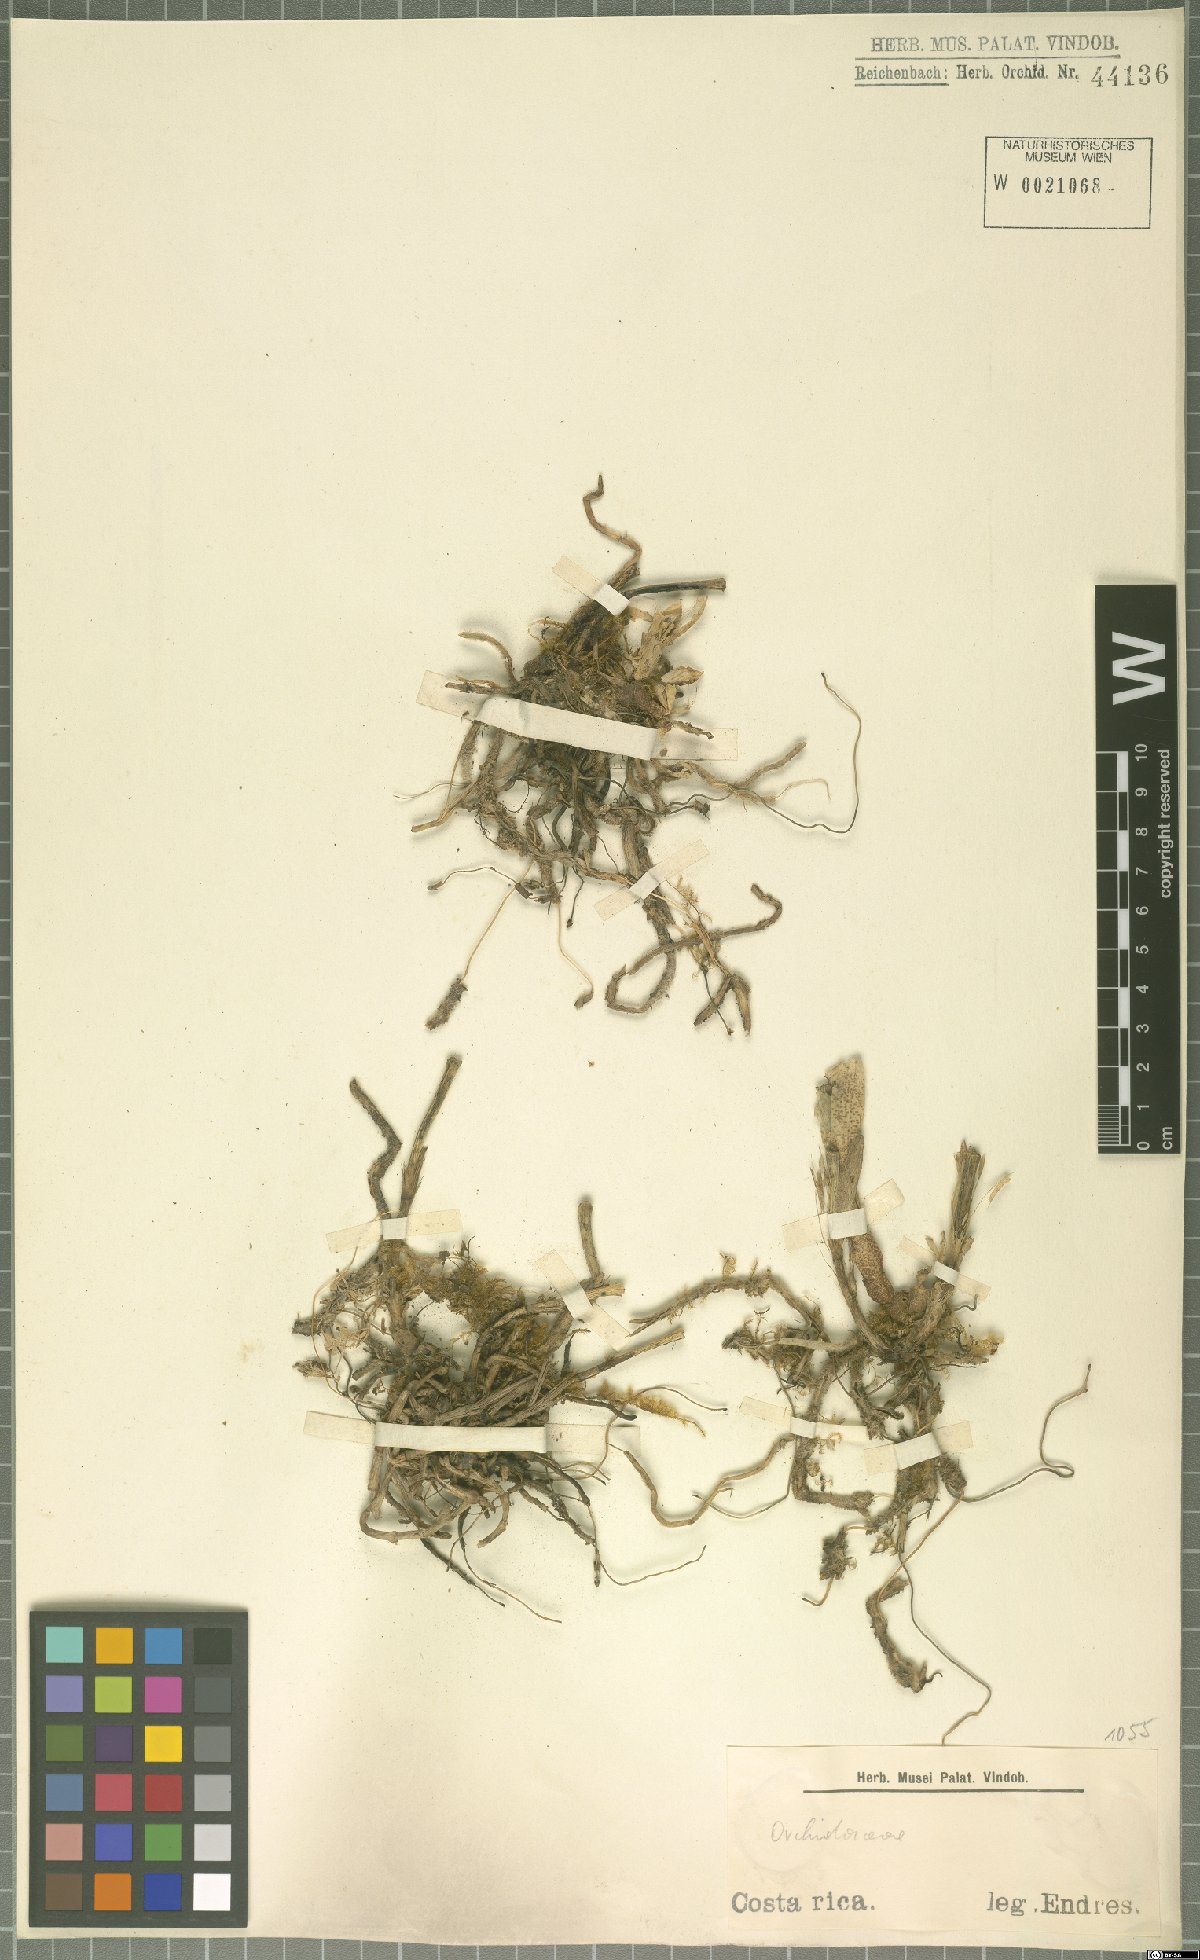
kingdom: Plantae
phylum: Tracheophyta
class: Liliopsida
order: Asparagales
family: Orchidaceae
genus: Acianthera
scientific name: Acianthera costaricensis
